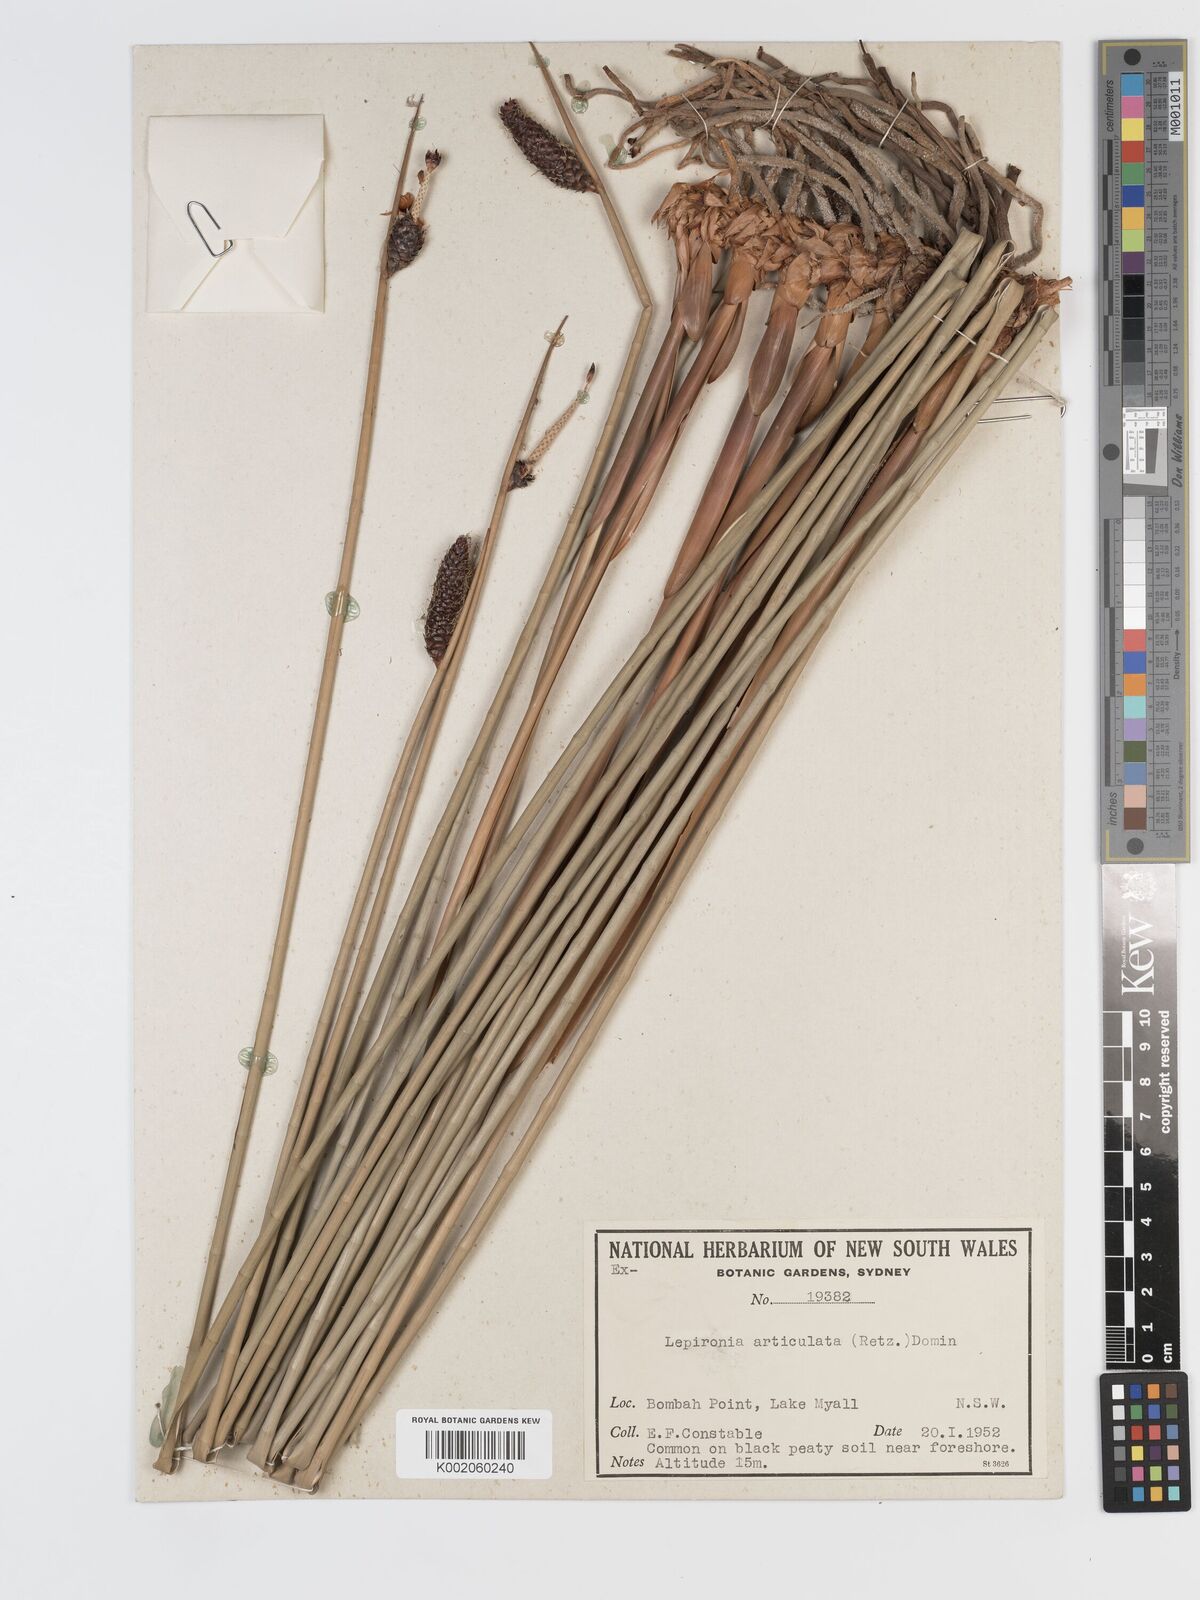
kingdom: Plantae
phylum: Tracheophyta
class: Liliopsida
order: Poales
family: Cyperaceae
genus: Lepironia
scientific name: Lepironia articulata
